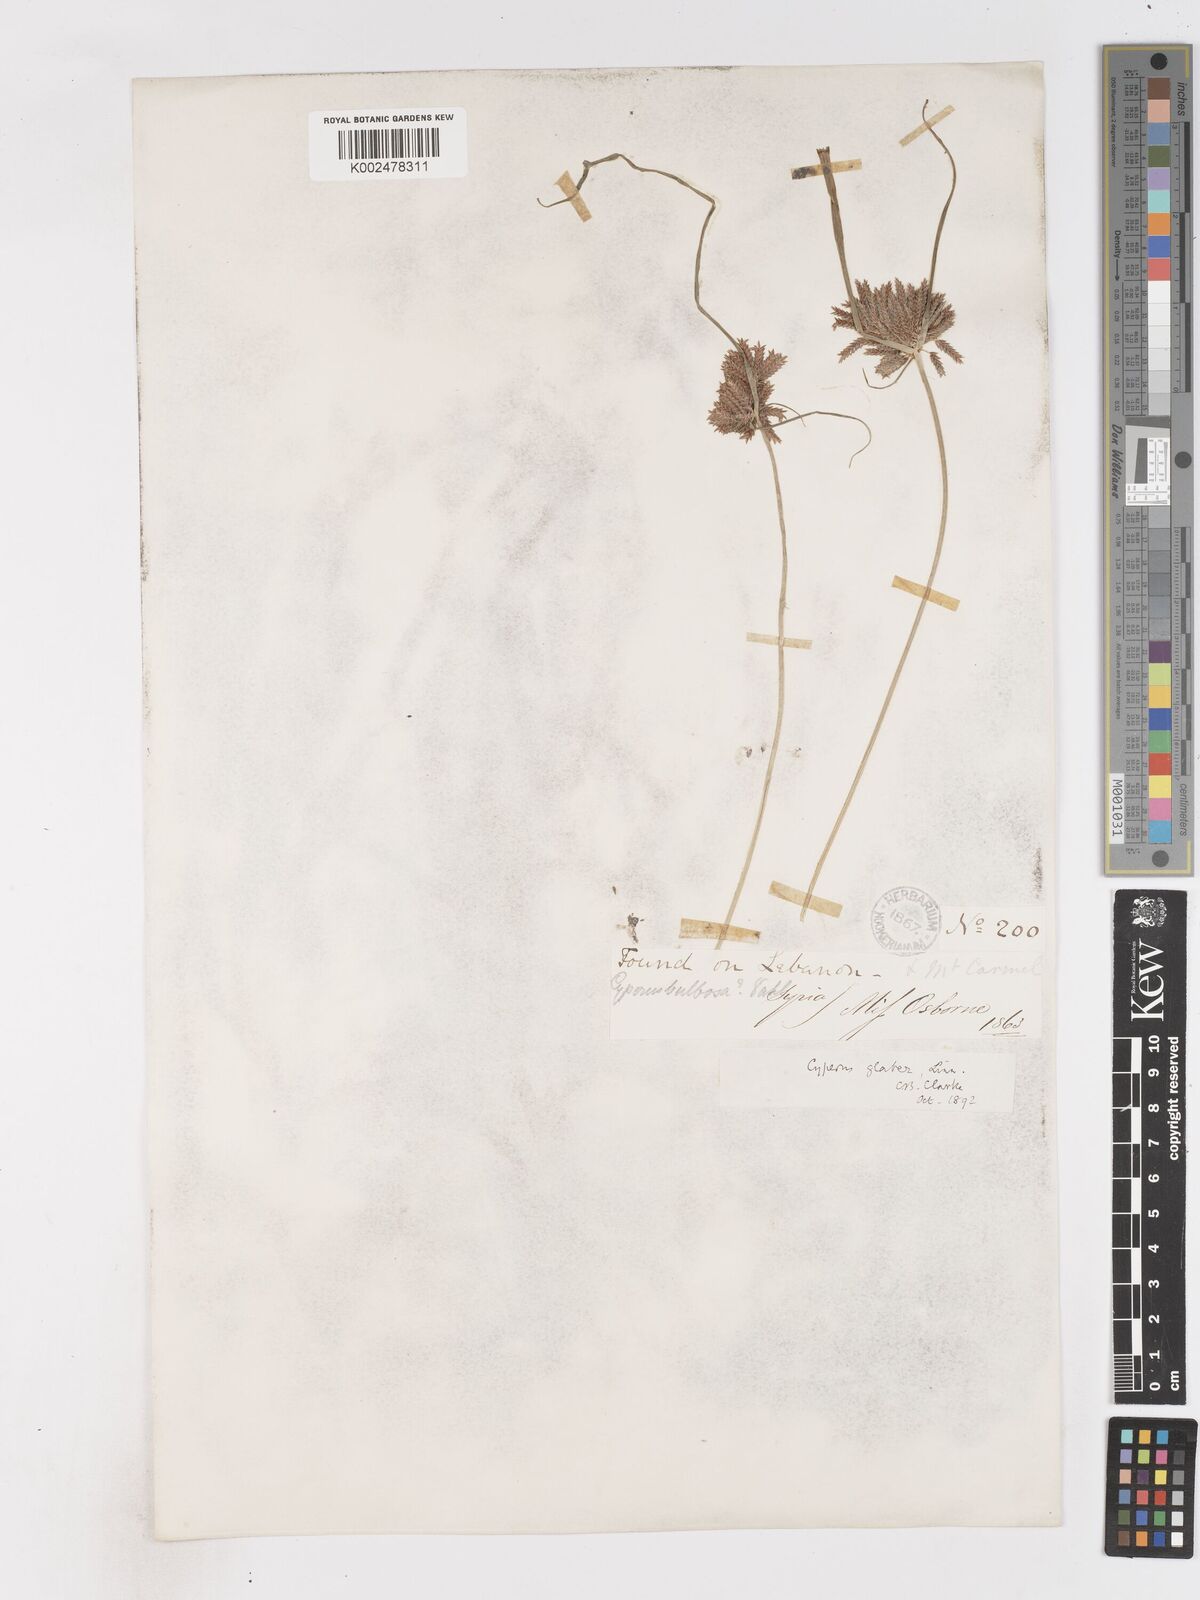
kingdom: Plantae
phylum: Tracheophyta
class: Liliopsida
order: Poales
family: Cyperaceae
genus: Cyperus
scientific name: Cyperus glaber
